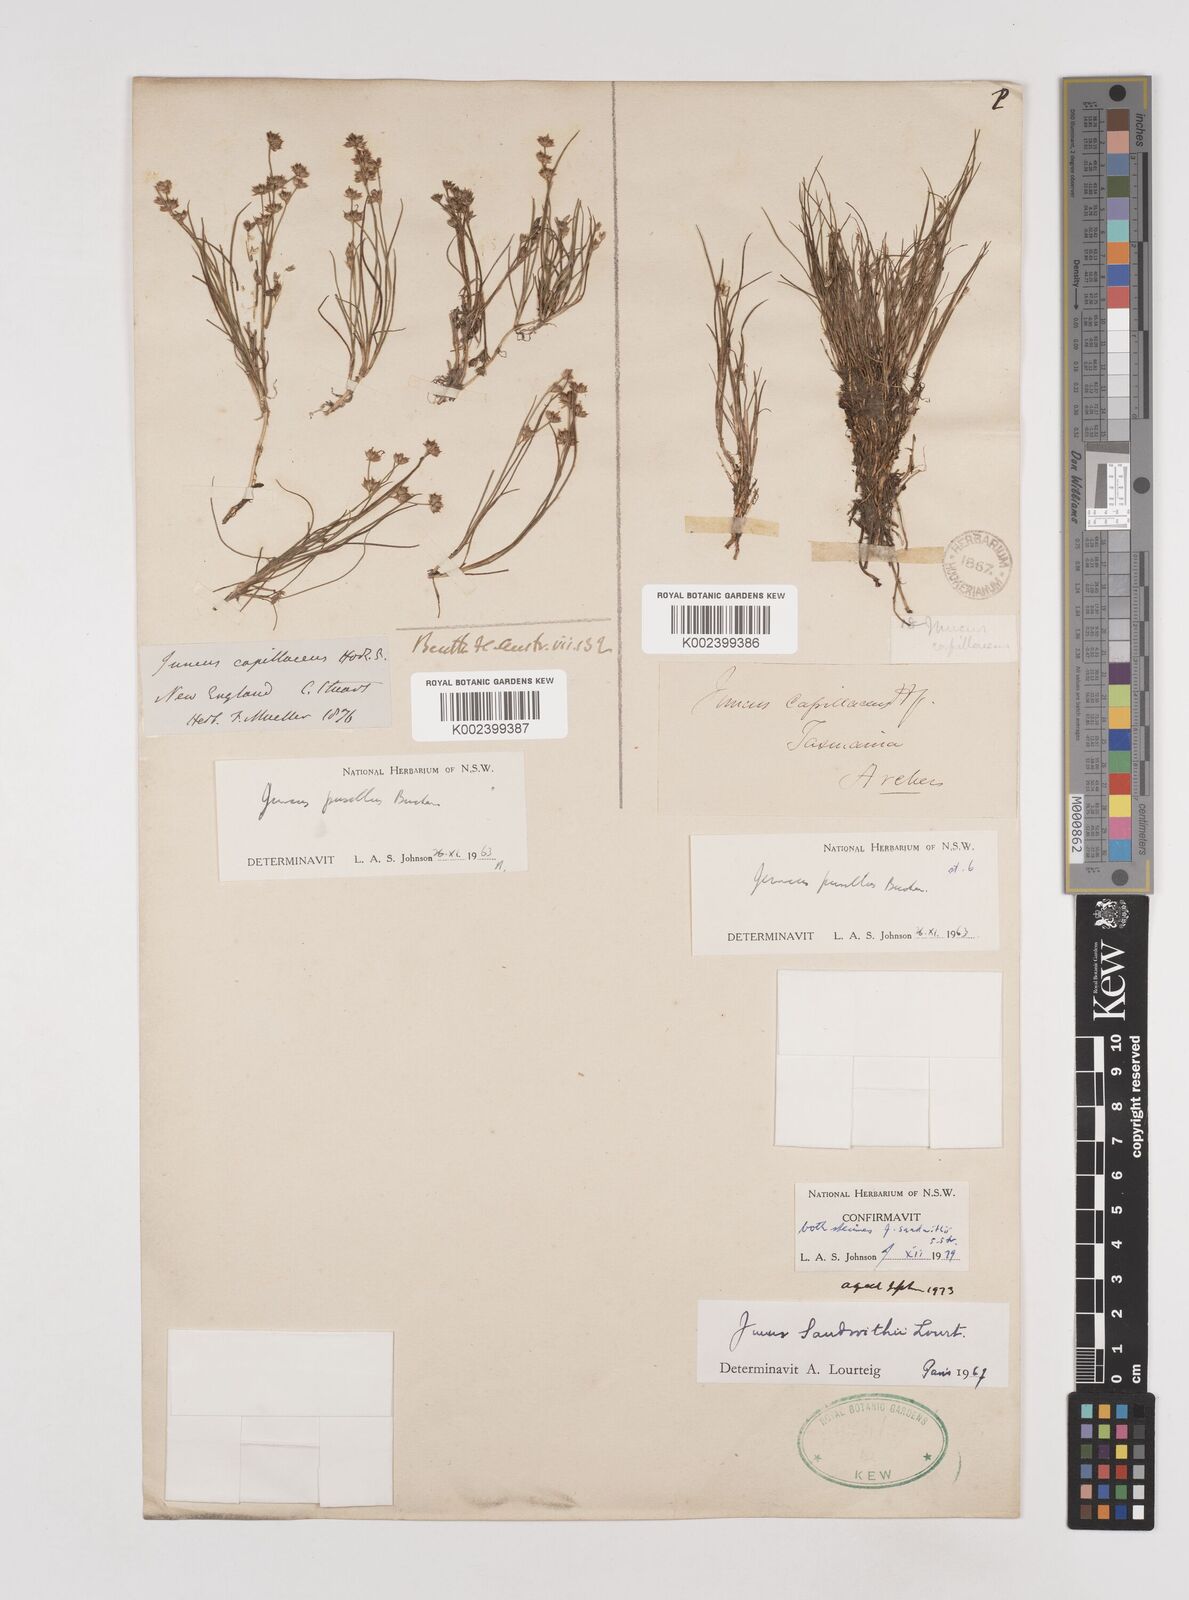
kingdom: Plantae
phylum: Tracheophyta
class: Liliopsida
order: Poales
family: Juncaceae
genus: Juncus
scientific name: Juncus sandwithii
